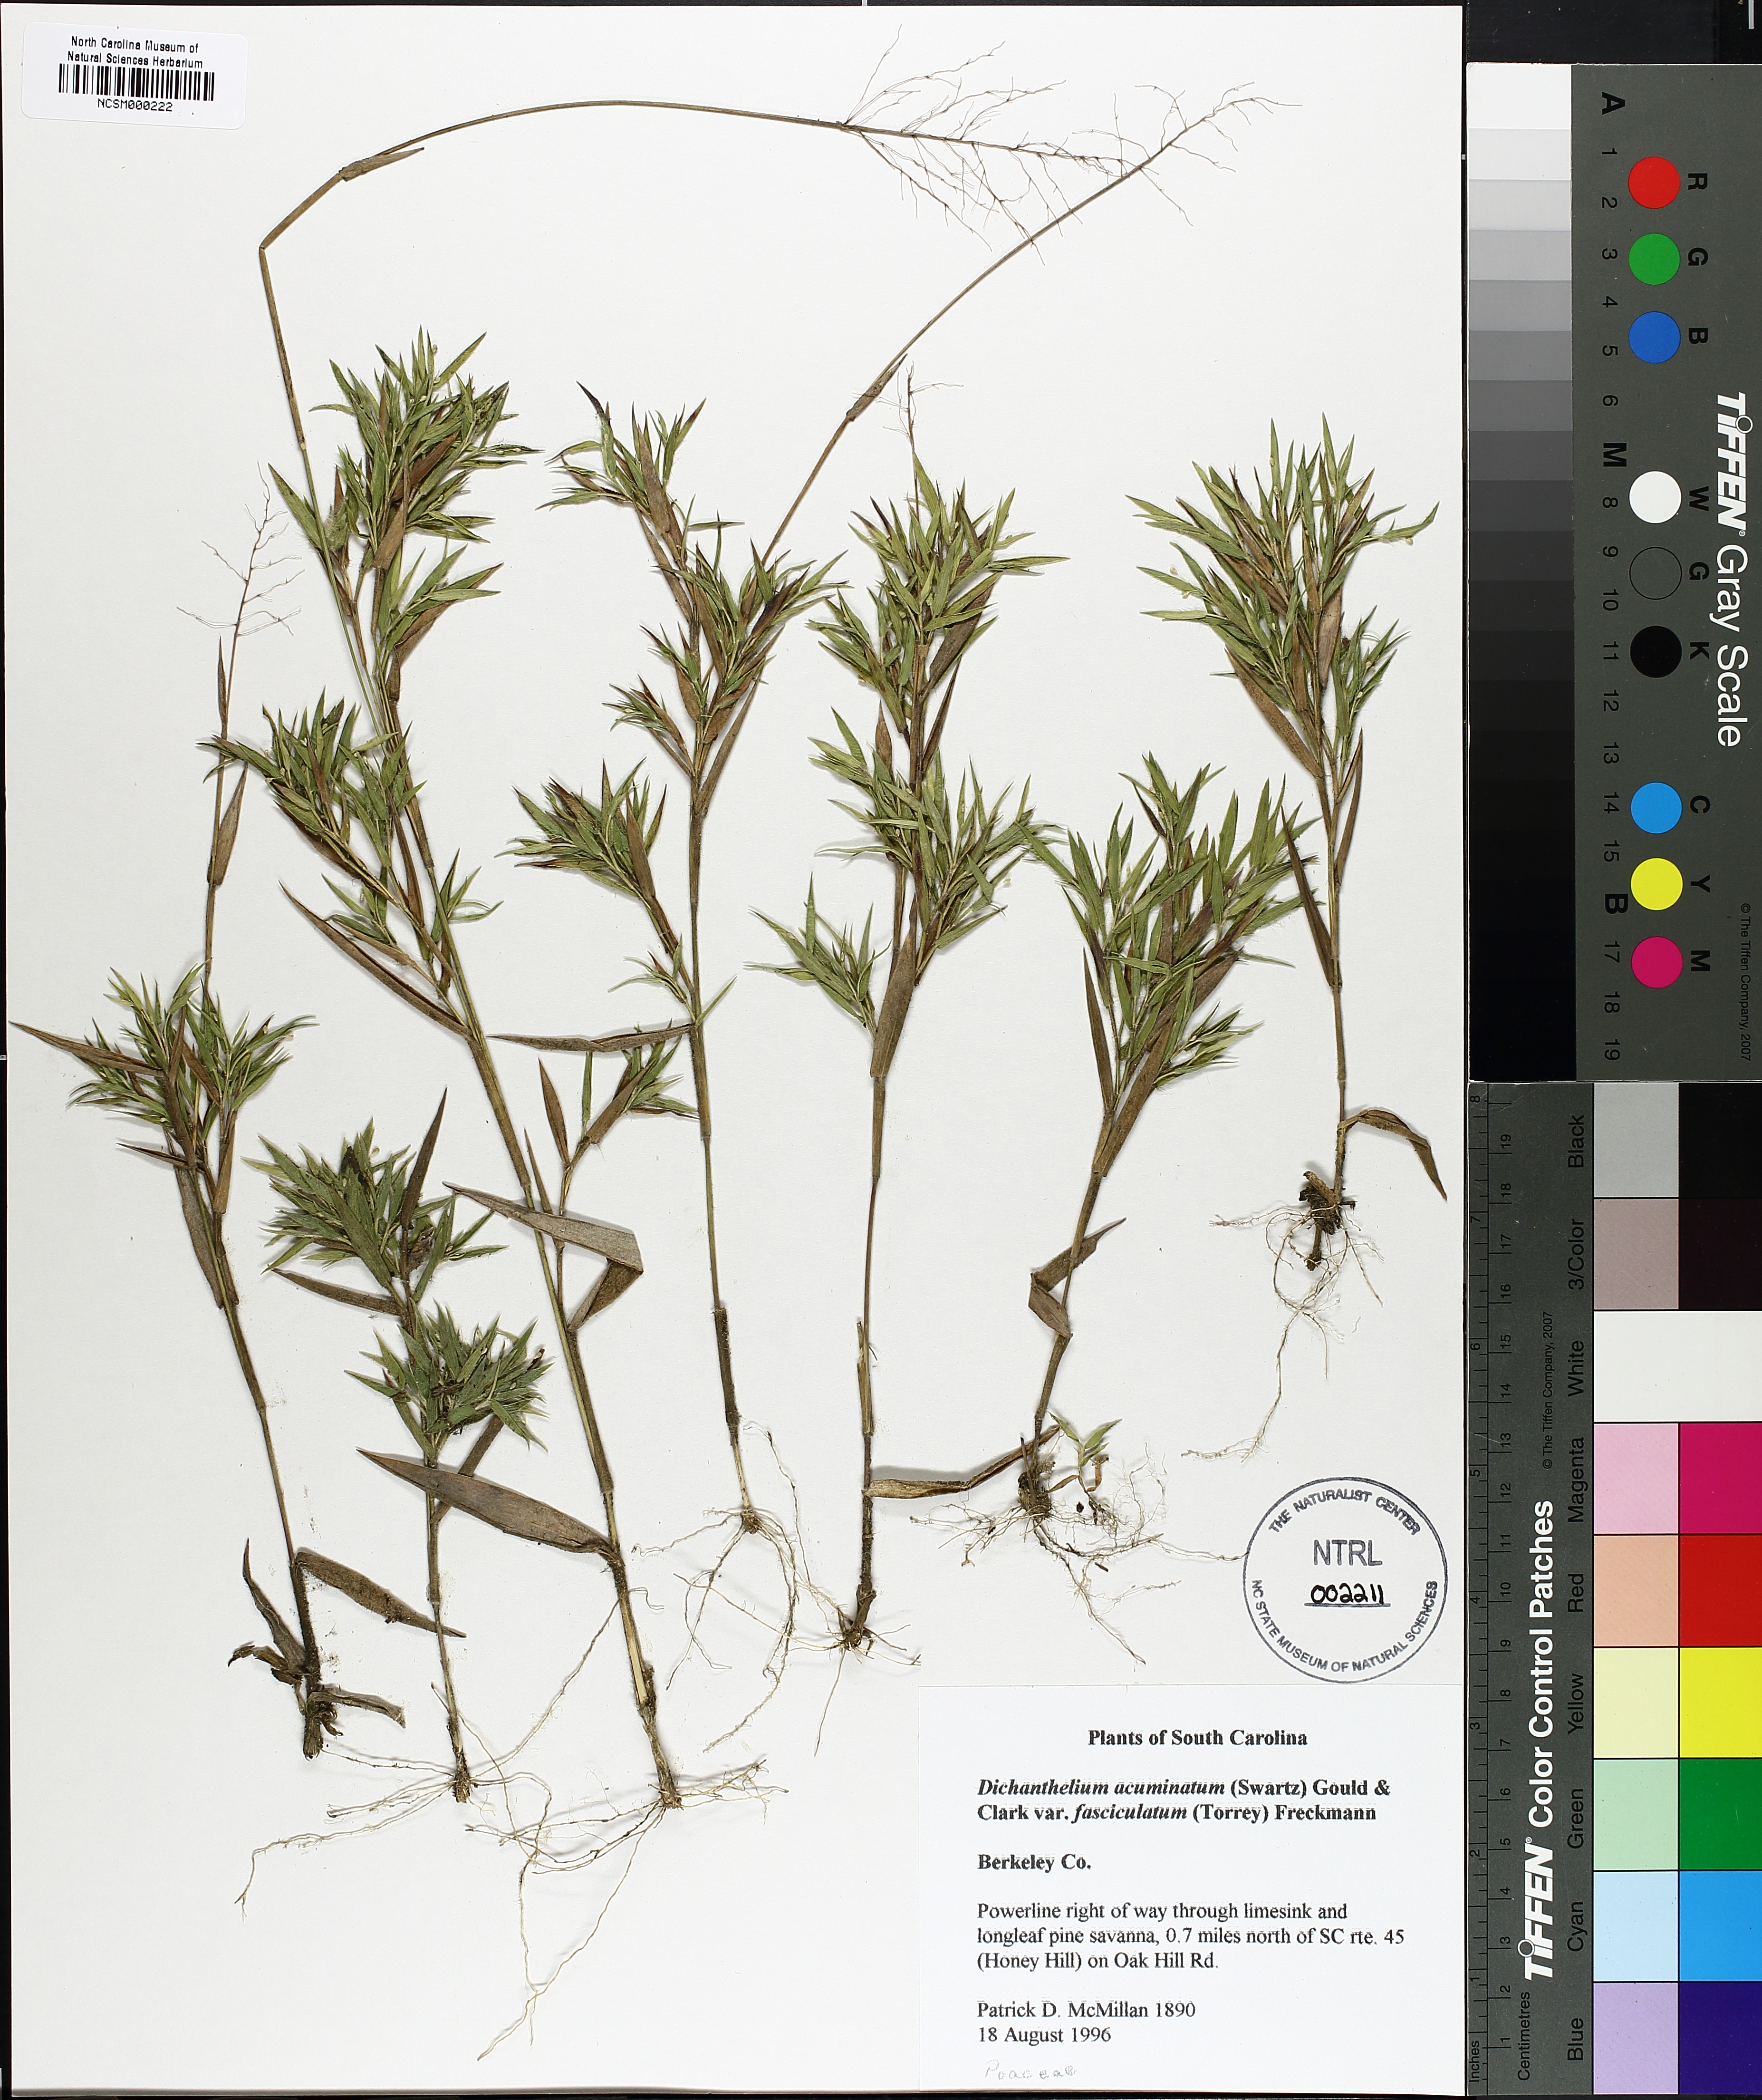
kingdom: Plantae
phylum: Tracheophyta
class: Liliopsida
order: Poales
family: Poaceae
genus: Dichanthelium
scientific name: Dichanthelium lanuginosum
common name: Woolly panicgrass
